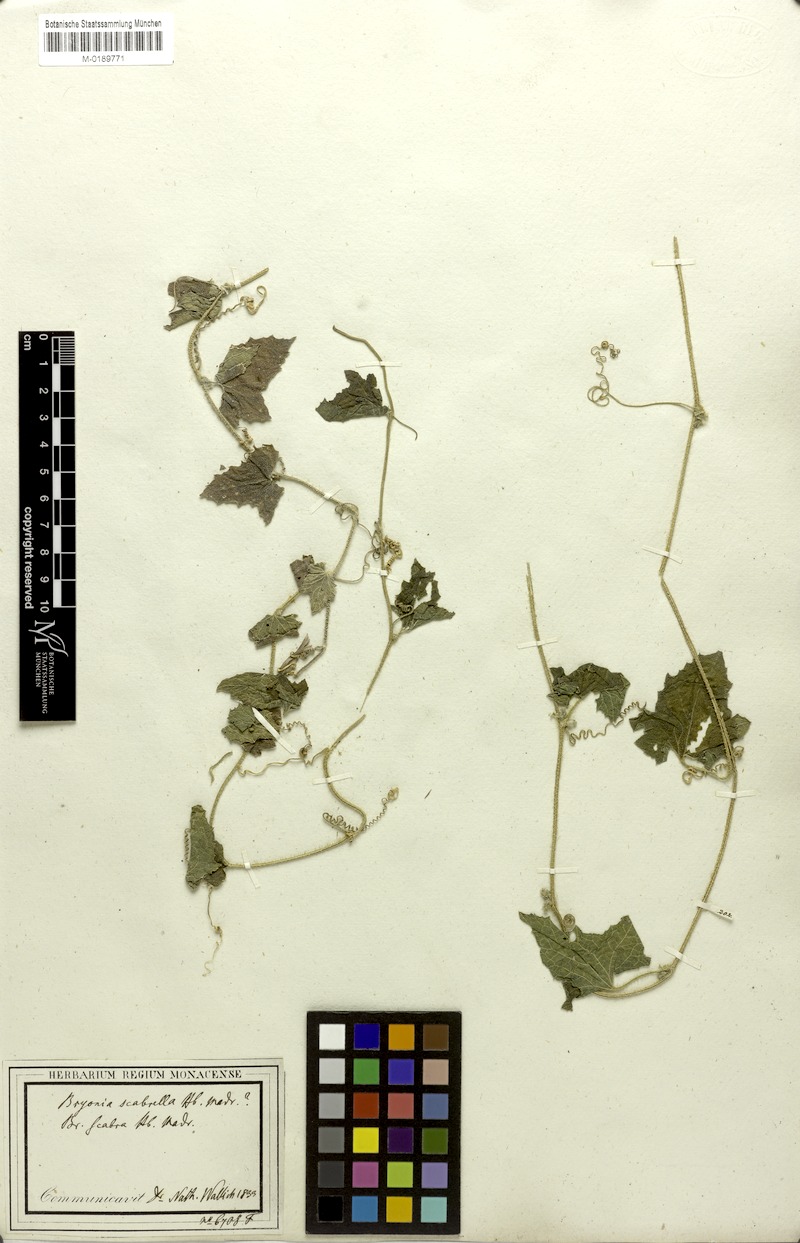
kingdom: Plantae
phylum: Tracheophyta
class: Magnoliopsida
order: Cucurbitales
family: Cucurbitaceae
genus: Cucumis
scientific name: Cucumis maderaspatanus
